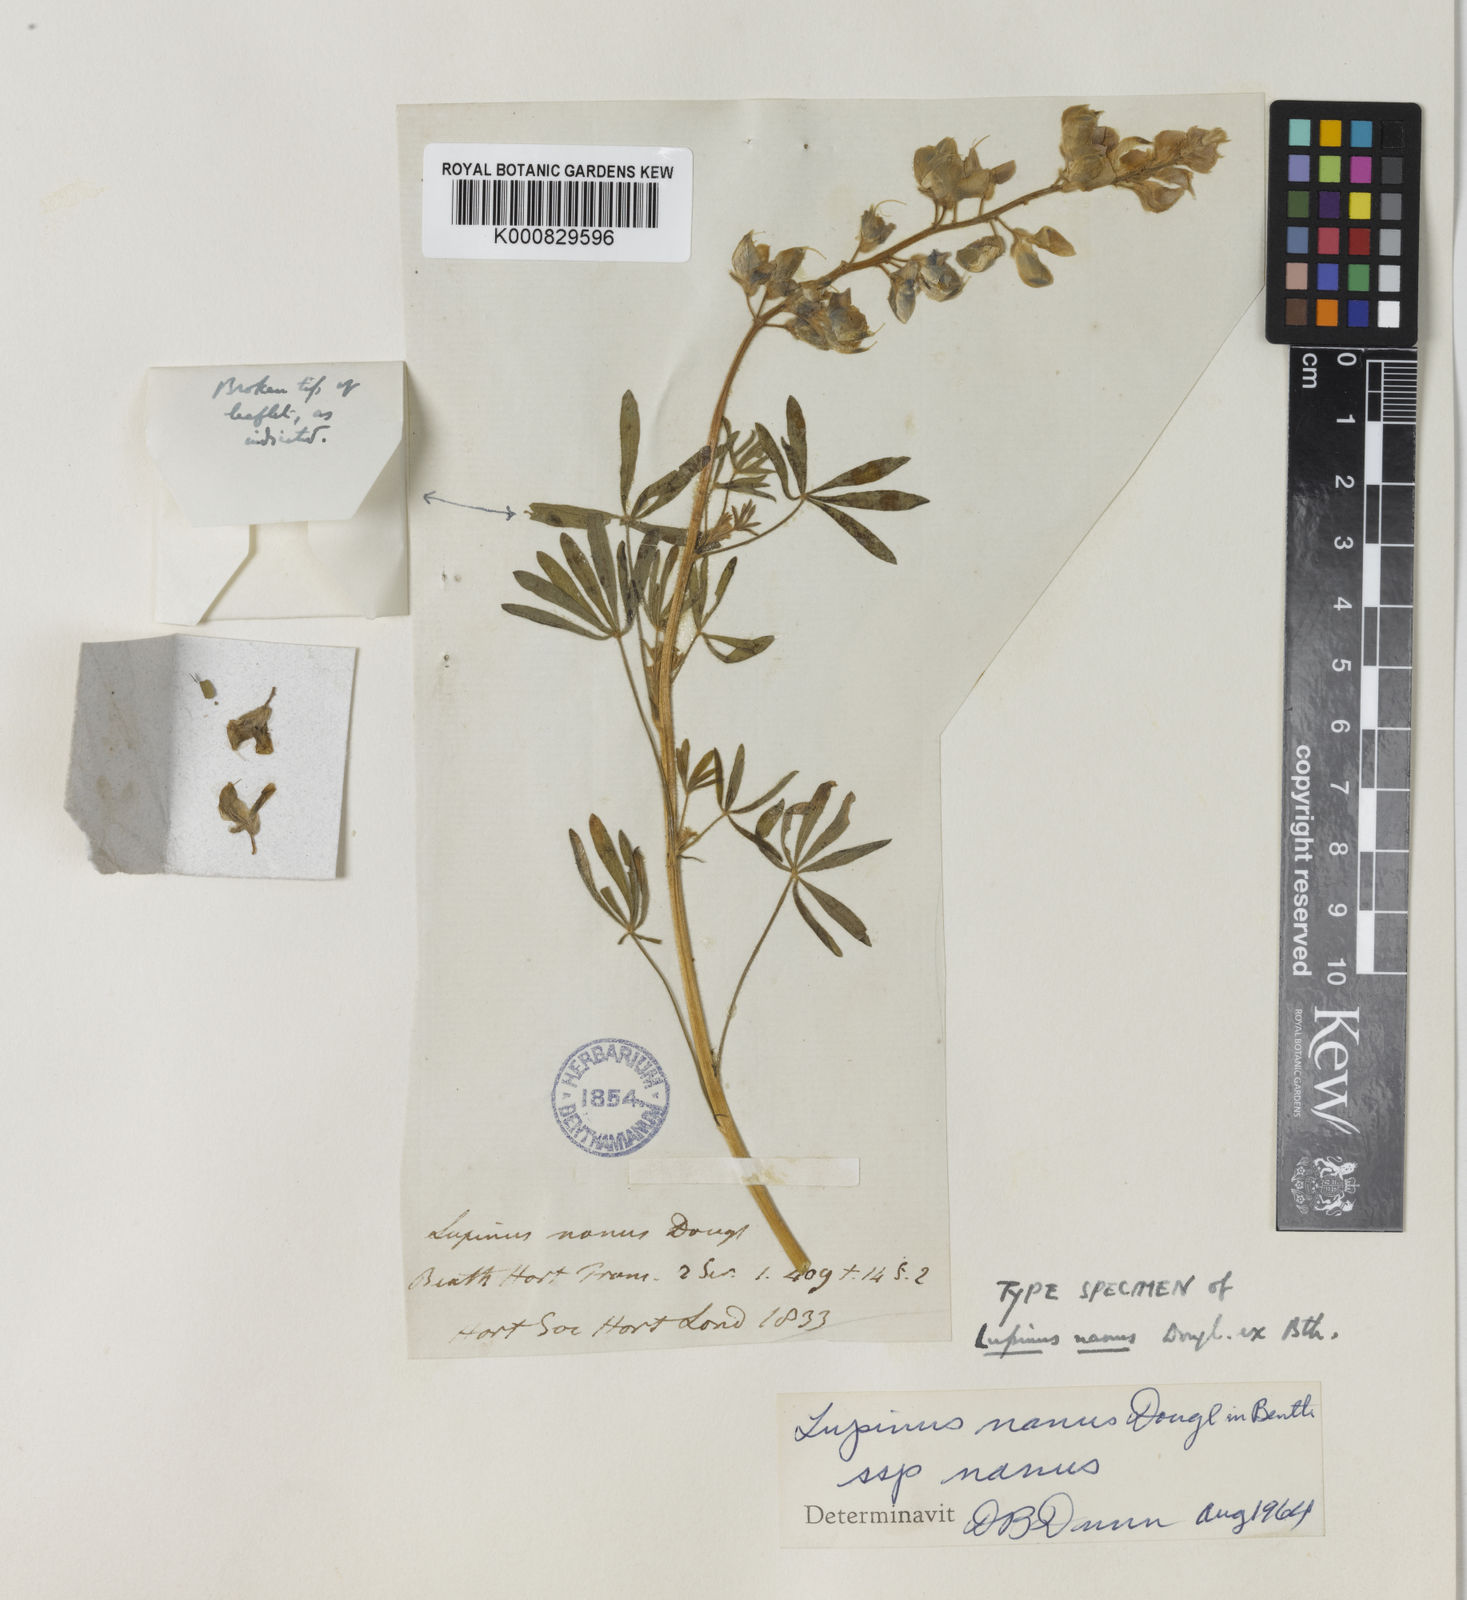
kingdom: Plantae
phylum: Tracheophyta
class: Magnoliopsida
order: Fabales
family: Fabaceae
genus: Lupinus
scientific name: Lupinus nanus
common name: Orean blue lupin
